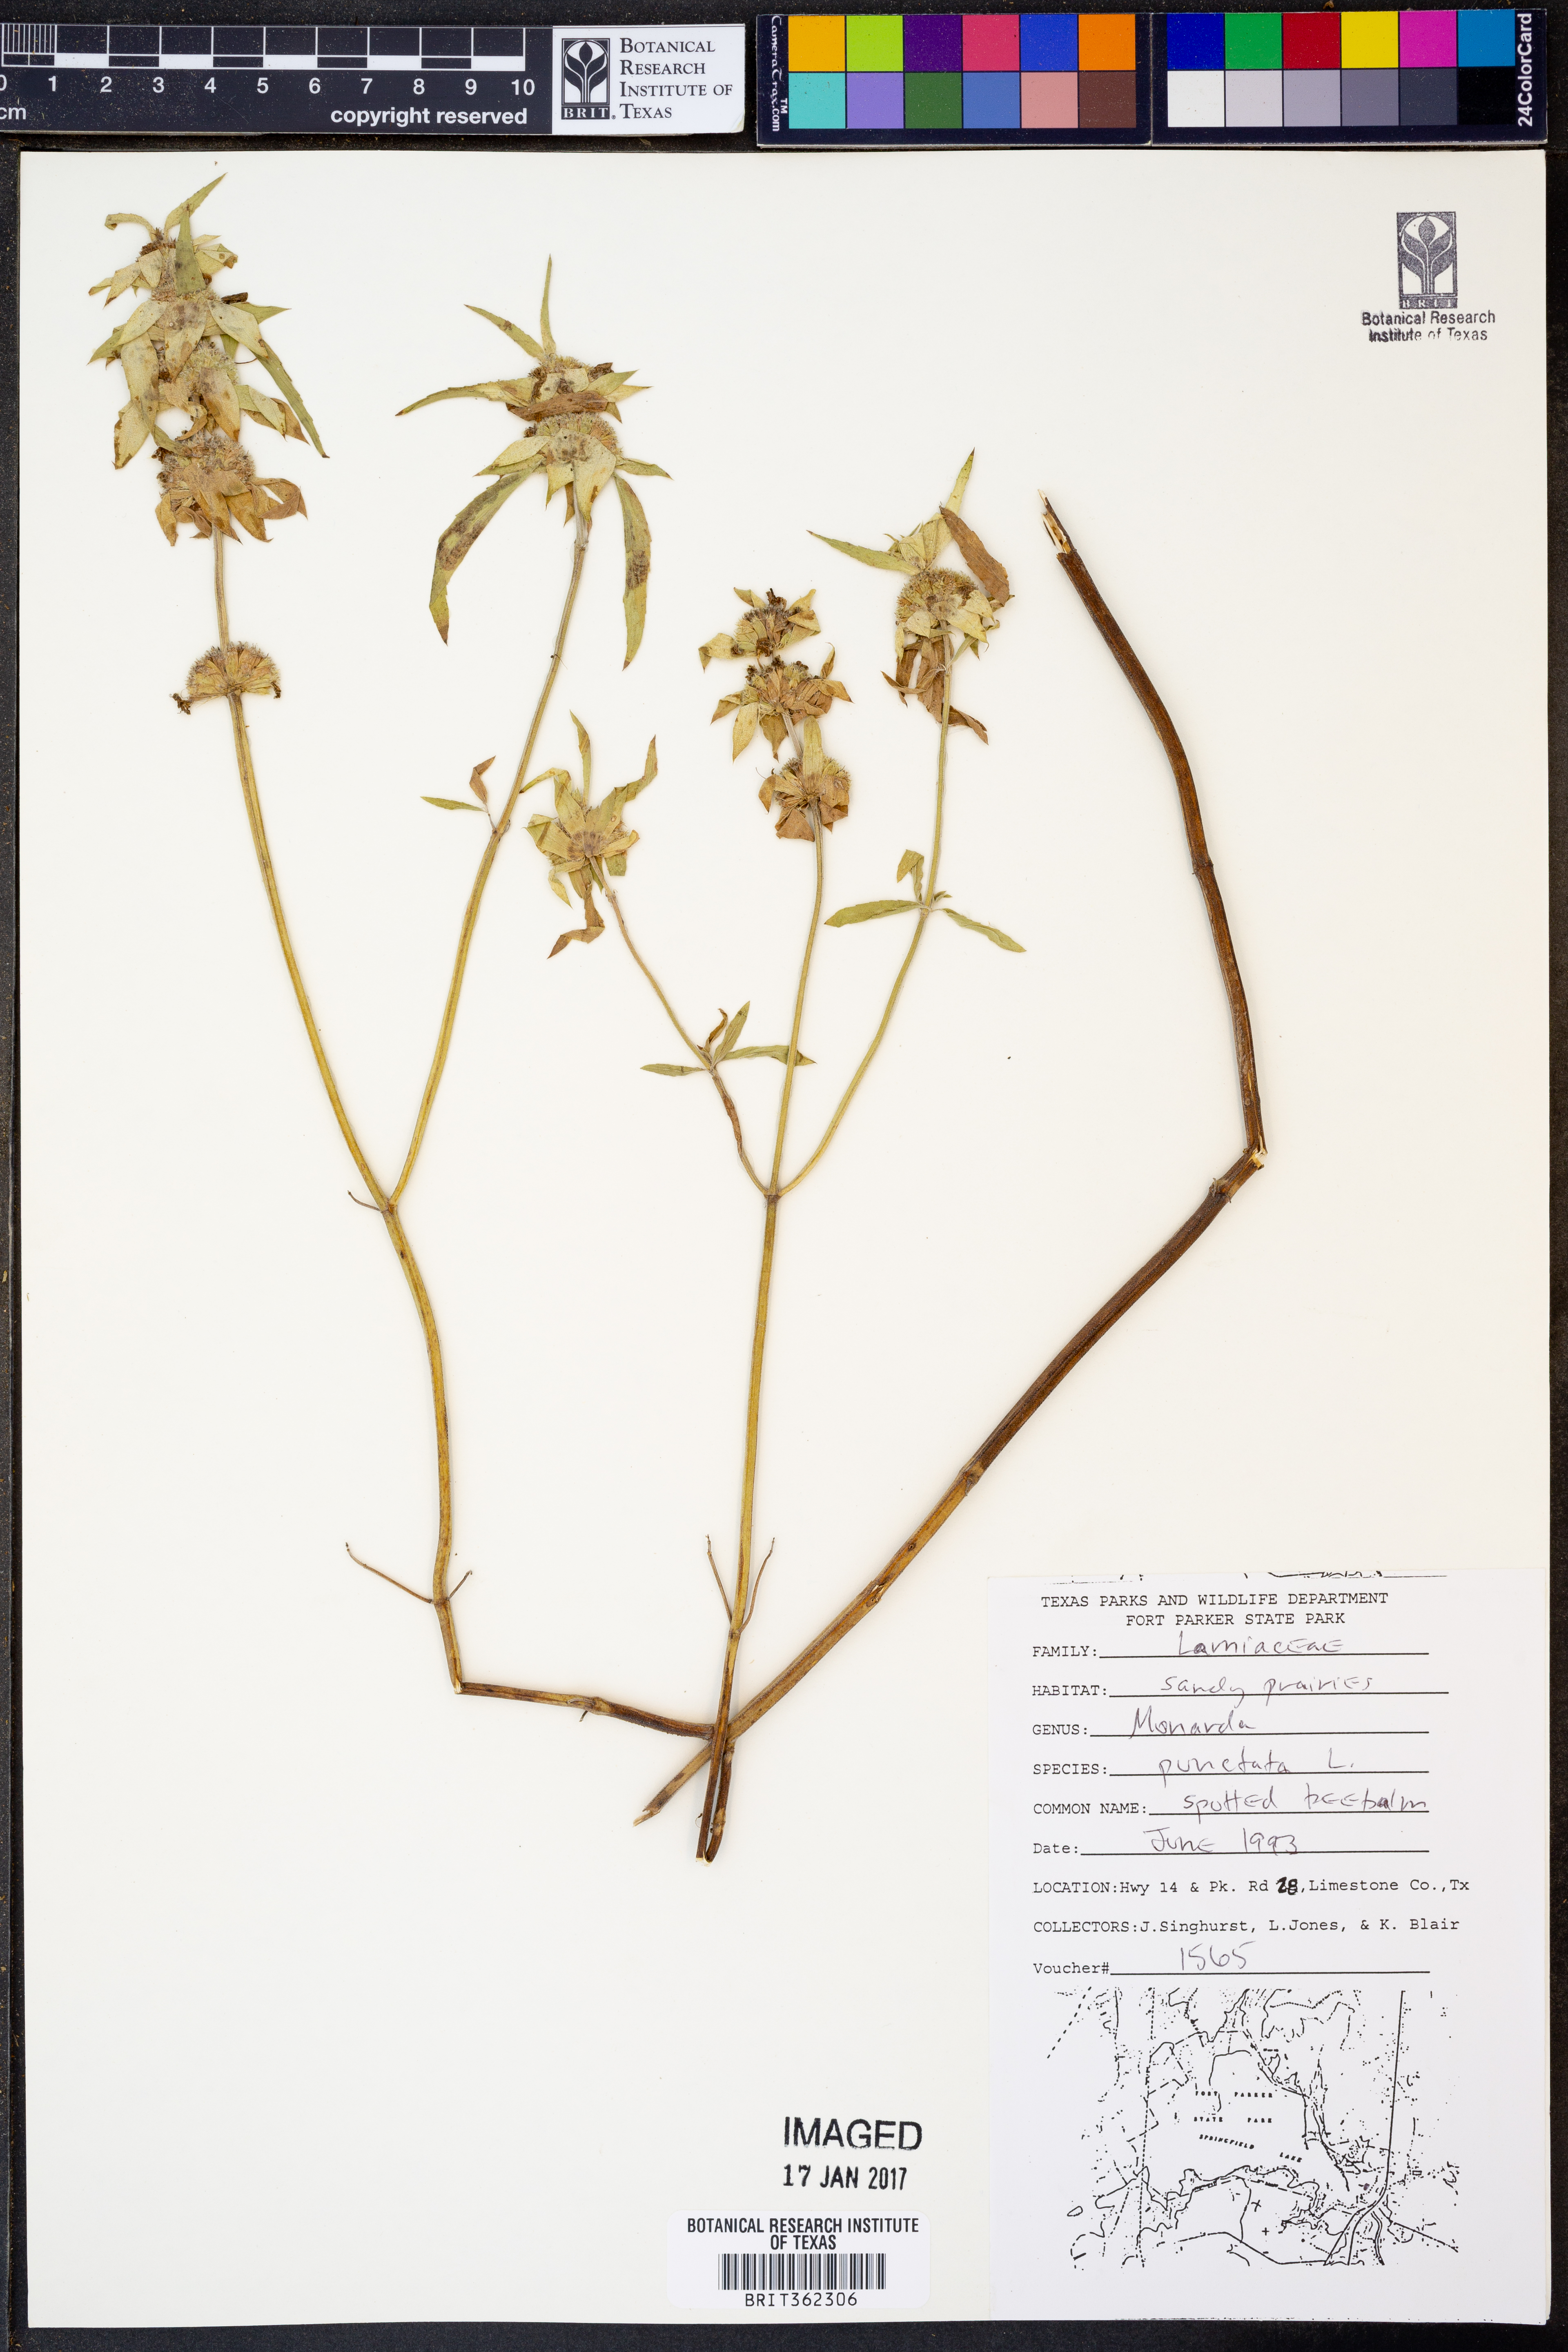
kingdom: Plantae
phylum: Tracheophyta
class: Magnoliopsida
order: Lamiales
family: Lamiaceae
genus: Monarda
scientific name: Monarda punctata
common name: Dotted monarda
